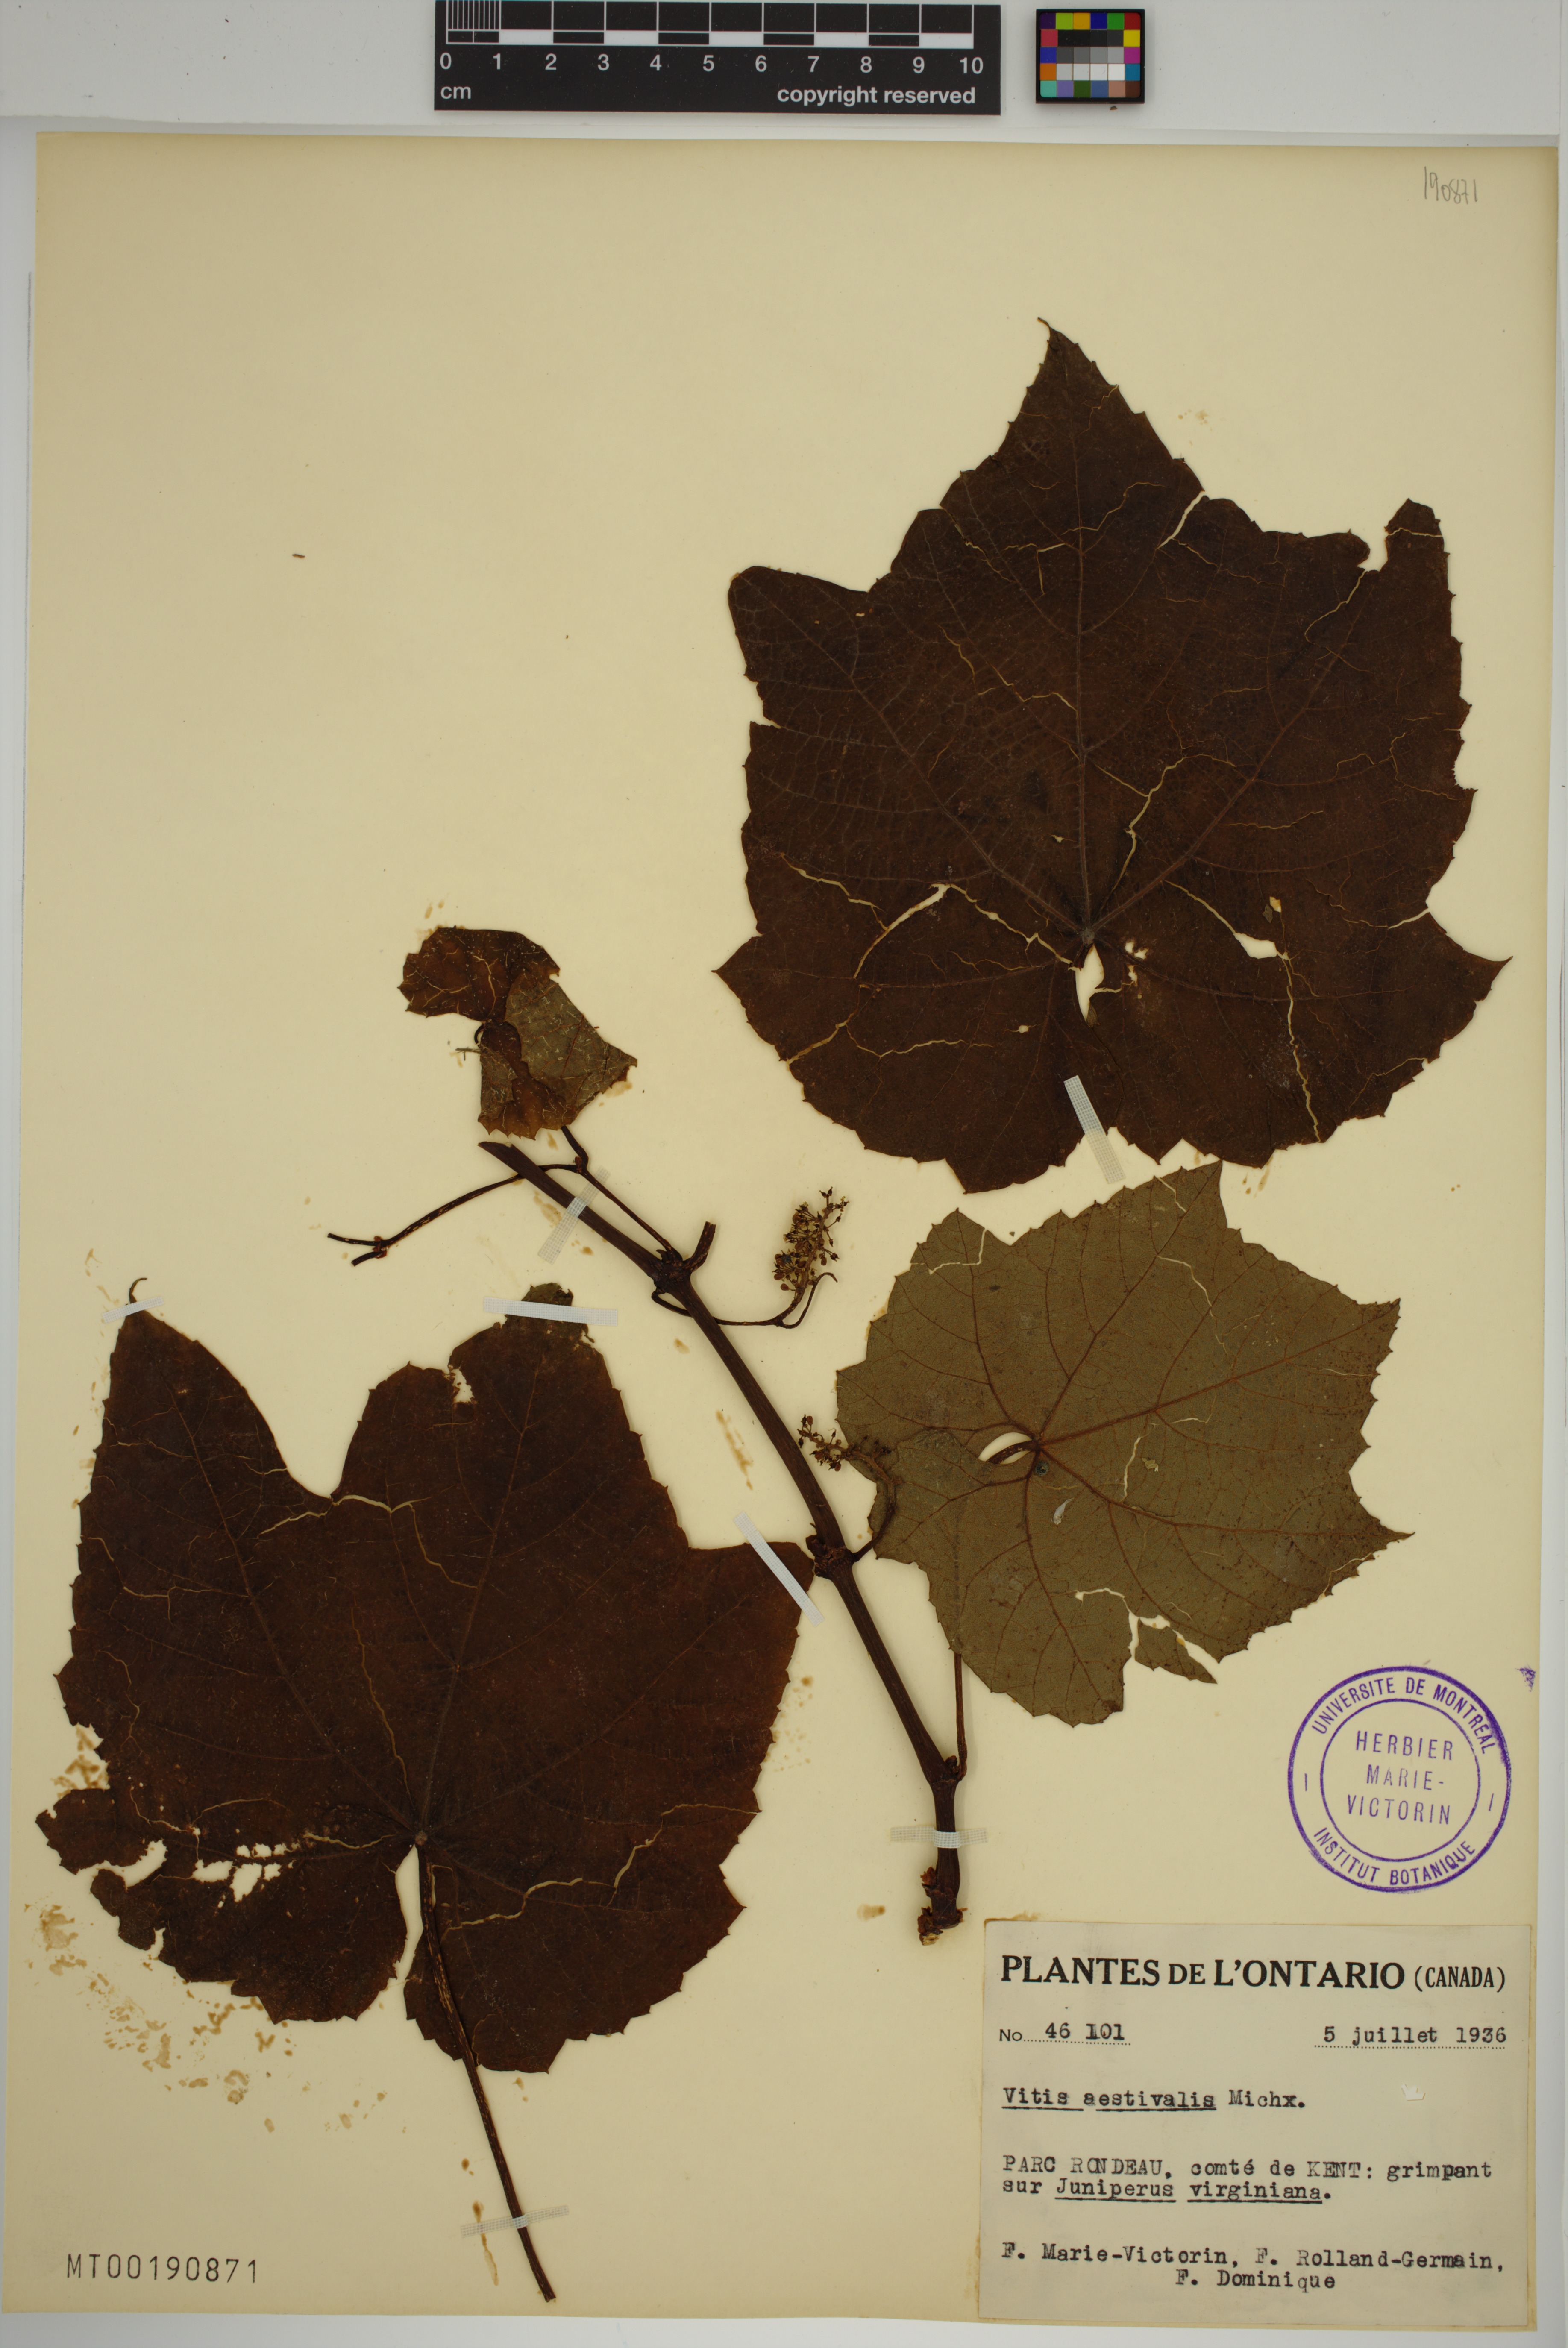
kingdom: Plantae
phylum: Tracheophyta
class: Magnoliopsida
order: Vitales
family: Vitaceae
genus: Vitis
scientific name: Vitis aestivalis
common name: Pigeon grape
